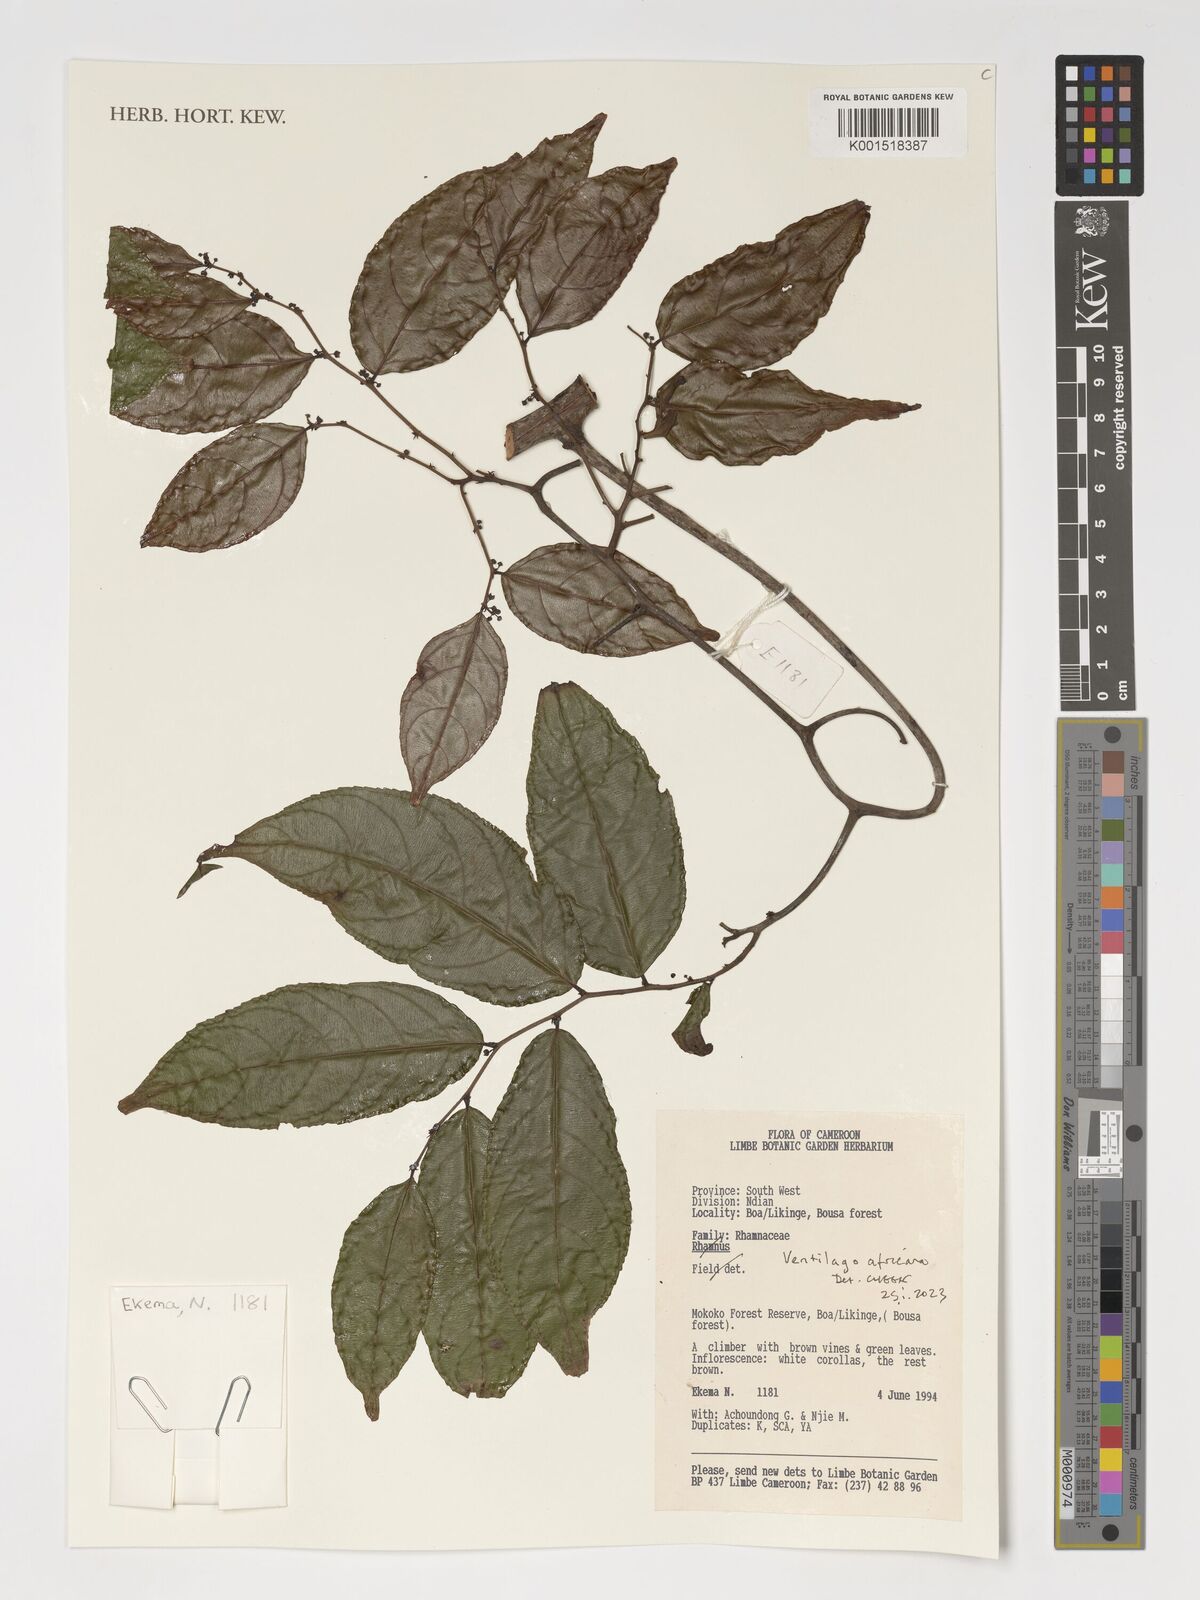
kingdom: Plantae
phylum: Tracheophyta
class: Magnoliopsida
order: Rosales
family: Rhamnaceae
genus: Ventilago
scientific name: Ventilago africana
